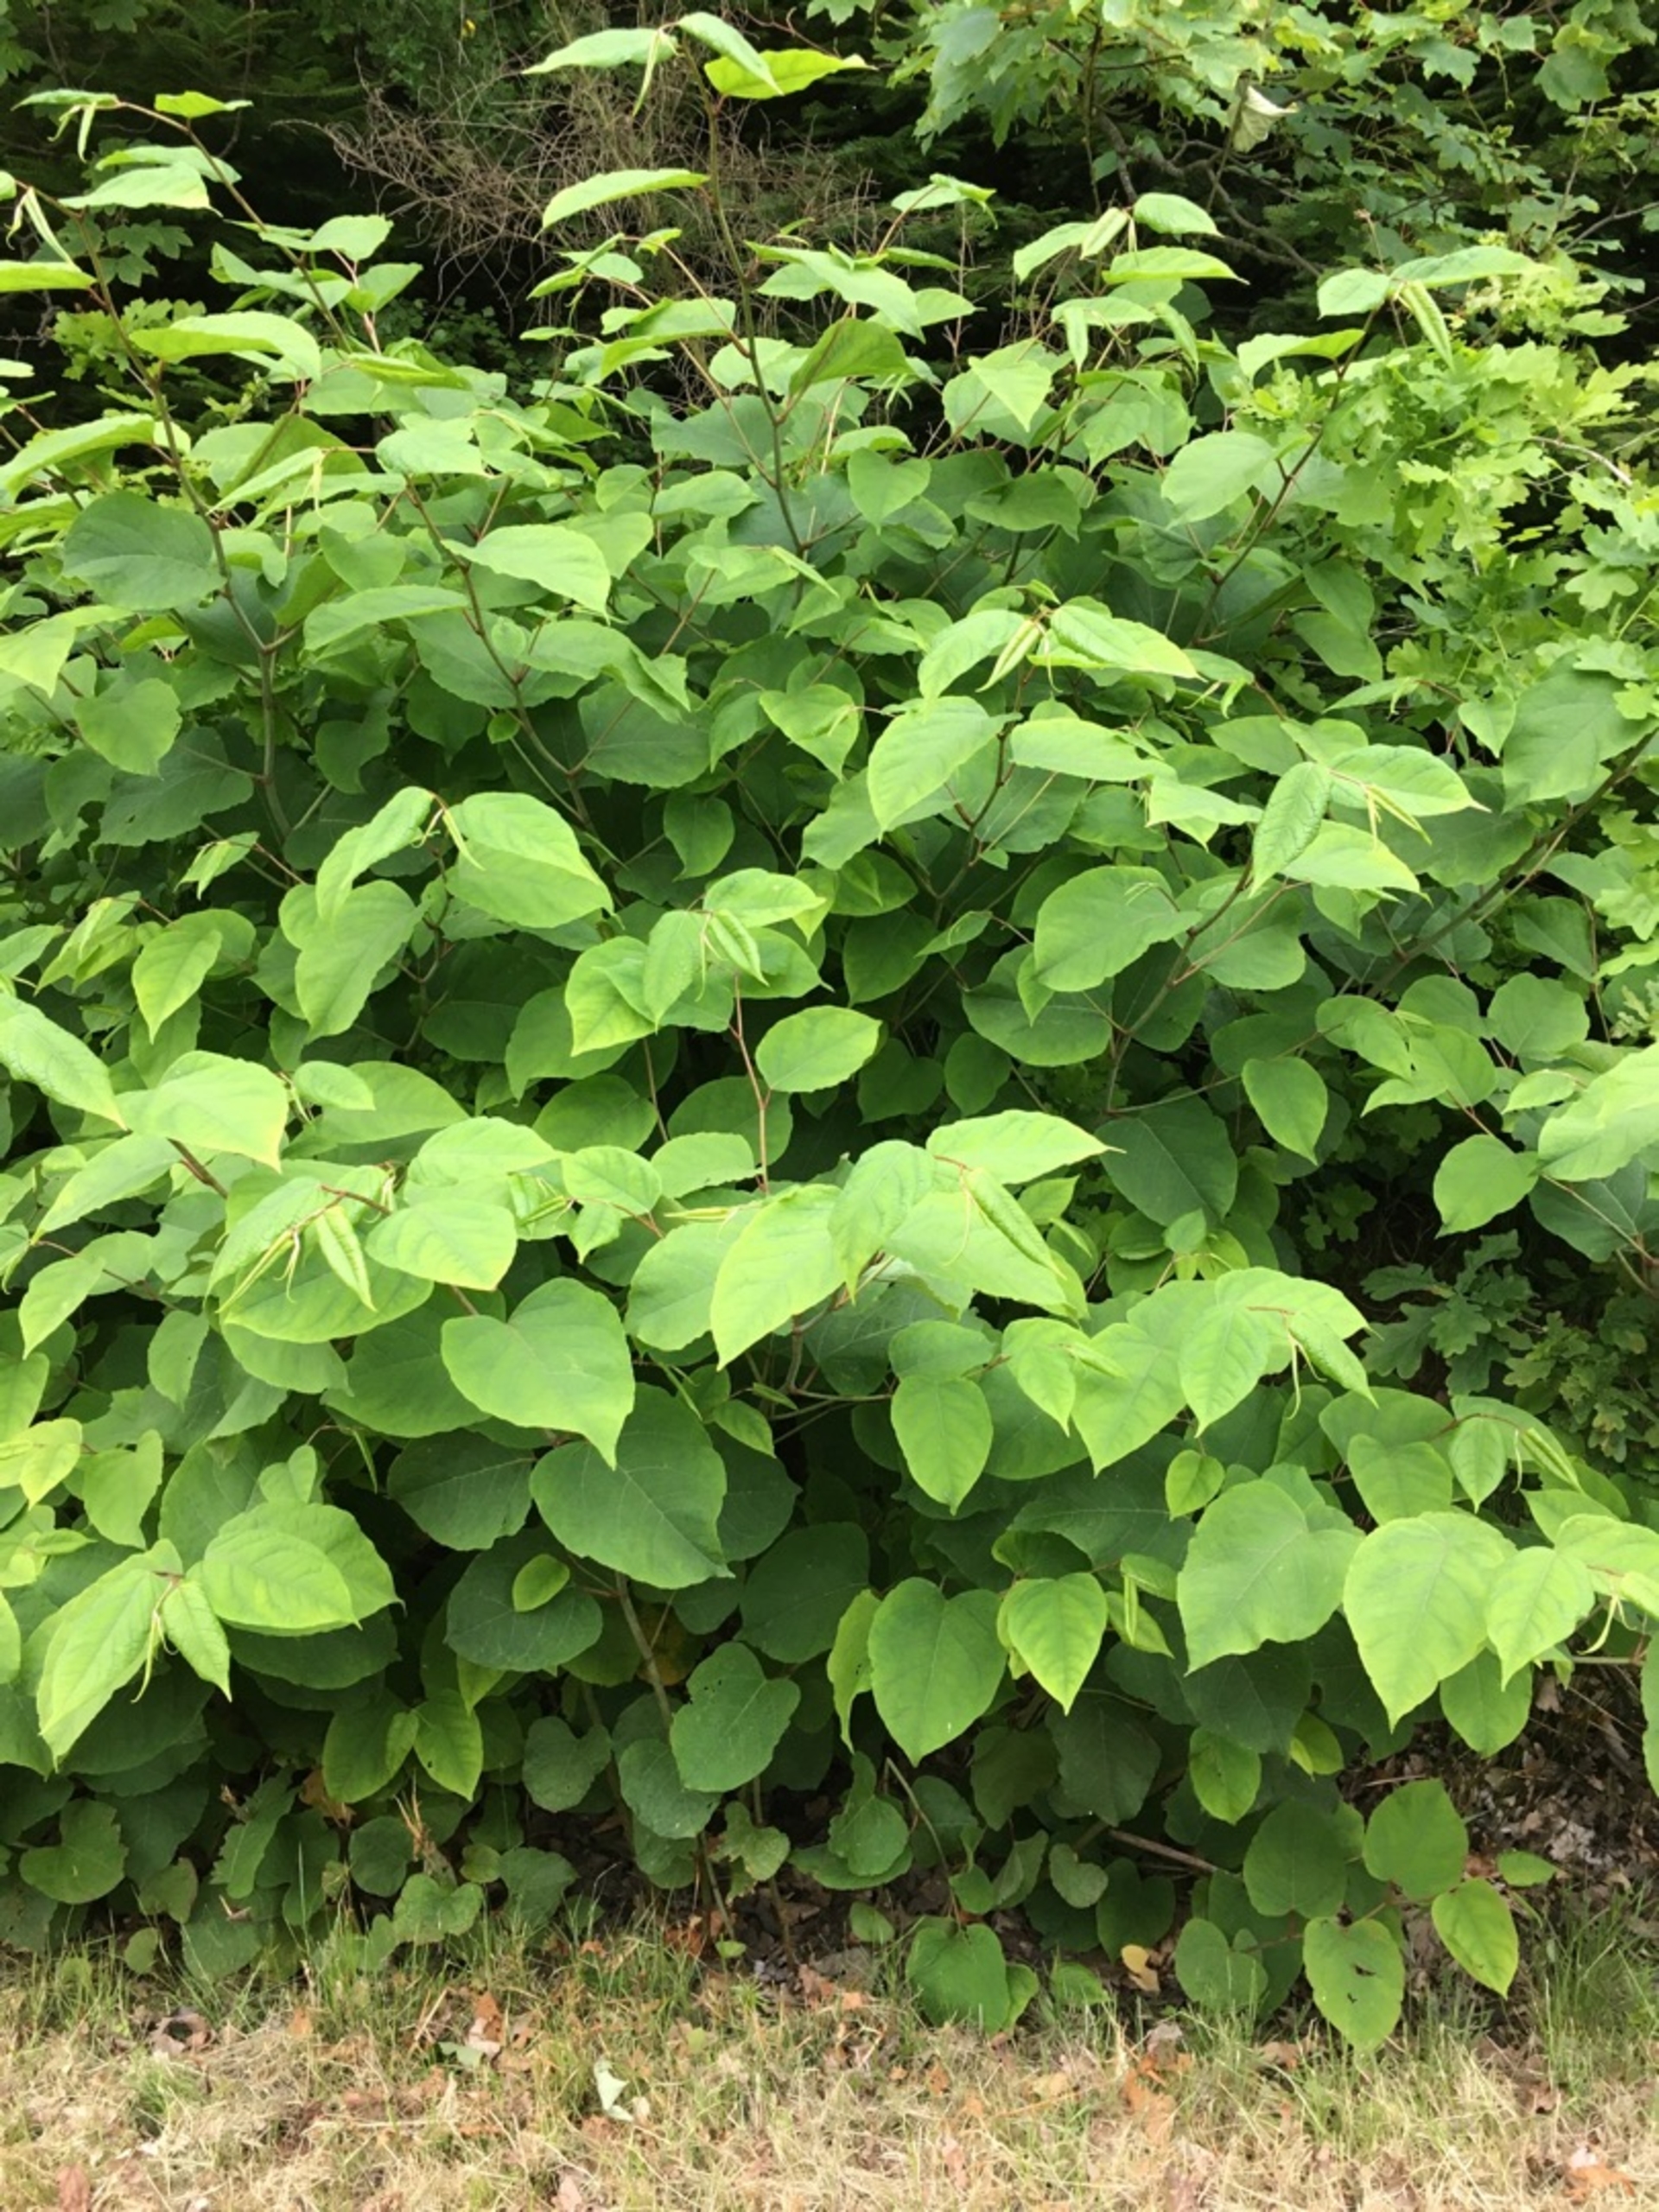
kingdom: Plantae
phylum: Tracheophyta
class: Magnoliopsida
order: Caryophyllales
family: Polygonaceae
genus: Reynoutria
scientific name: Reynoutria japonica
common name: Japan-pileurt
